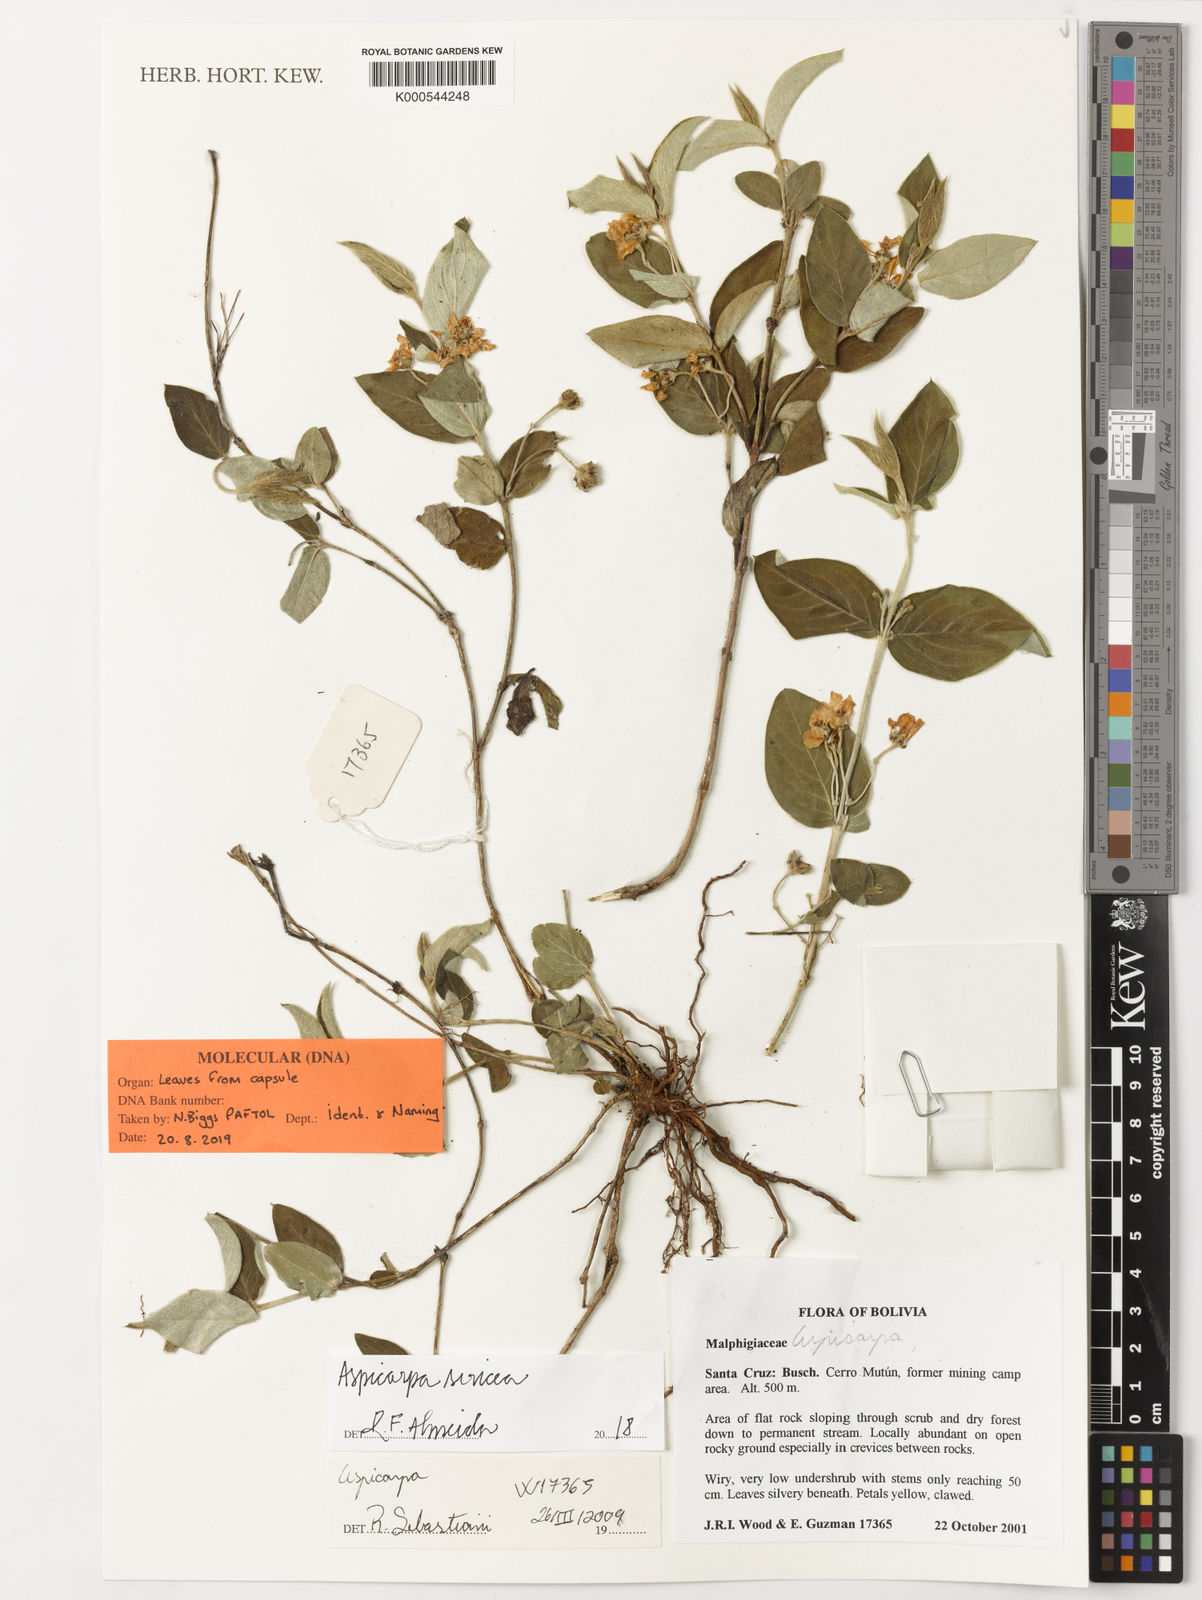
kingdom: Plantae
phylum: Tracheophyta
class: Magnoliopsida
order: Malpighiales
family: Malpighiaceae
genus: Aspicarpa
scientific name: Aspicarpa
